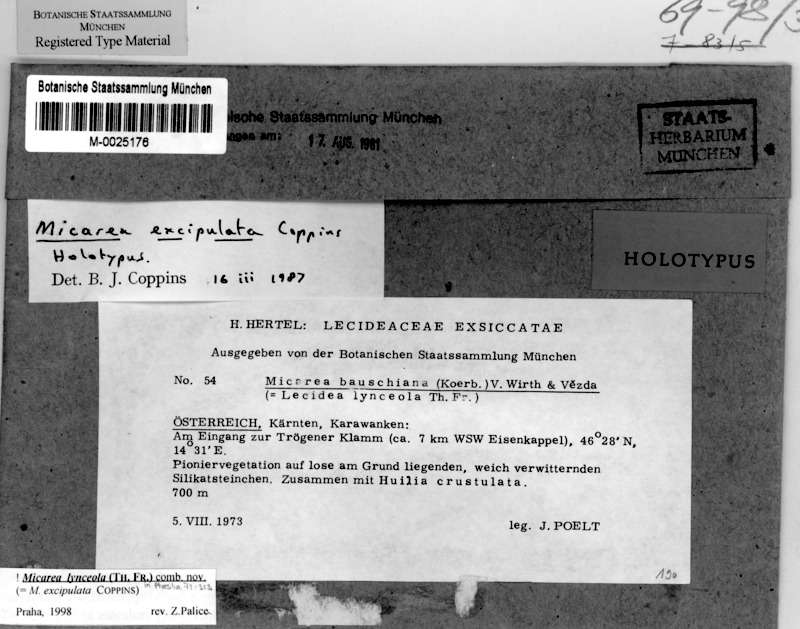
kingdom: Fungi
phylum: Ascomycota
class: Lecanoromycetes
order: Lecideales
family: Lecideaceae
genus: Porpidia
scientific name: Porpidia crustulata
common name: Concentric boulder lichen
